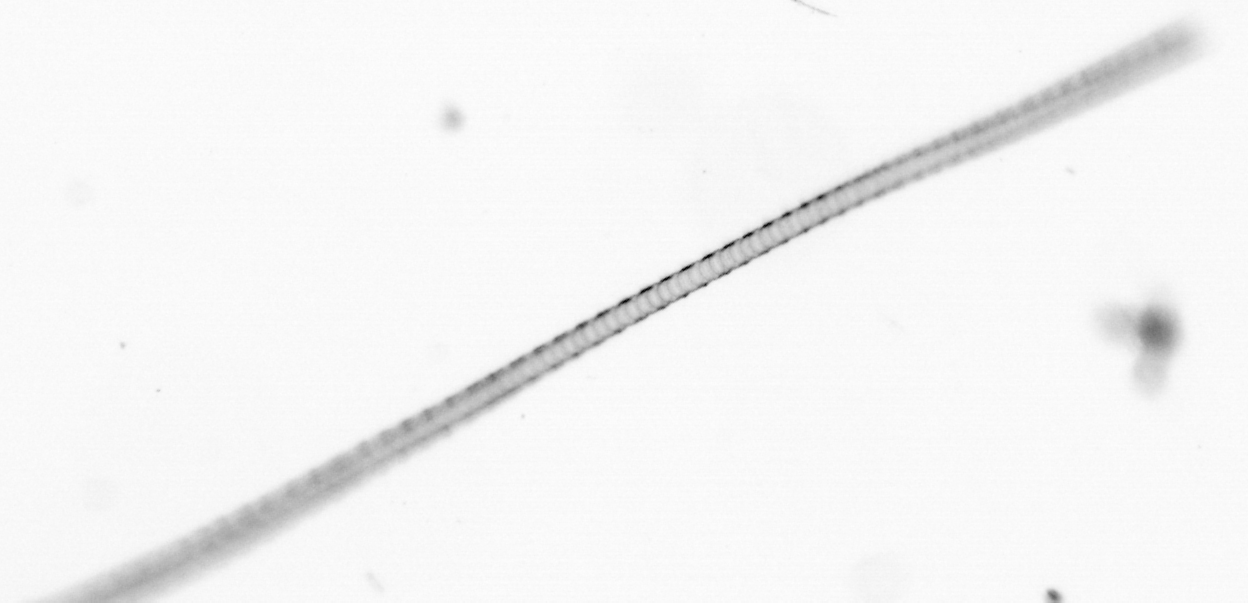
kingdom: Chromista
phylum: Ochrophyta
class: Bacillariophyceae
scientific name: Bacillariophyceae
